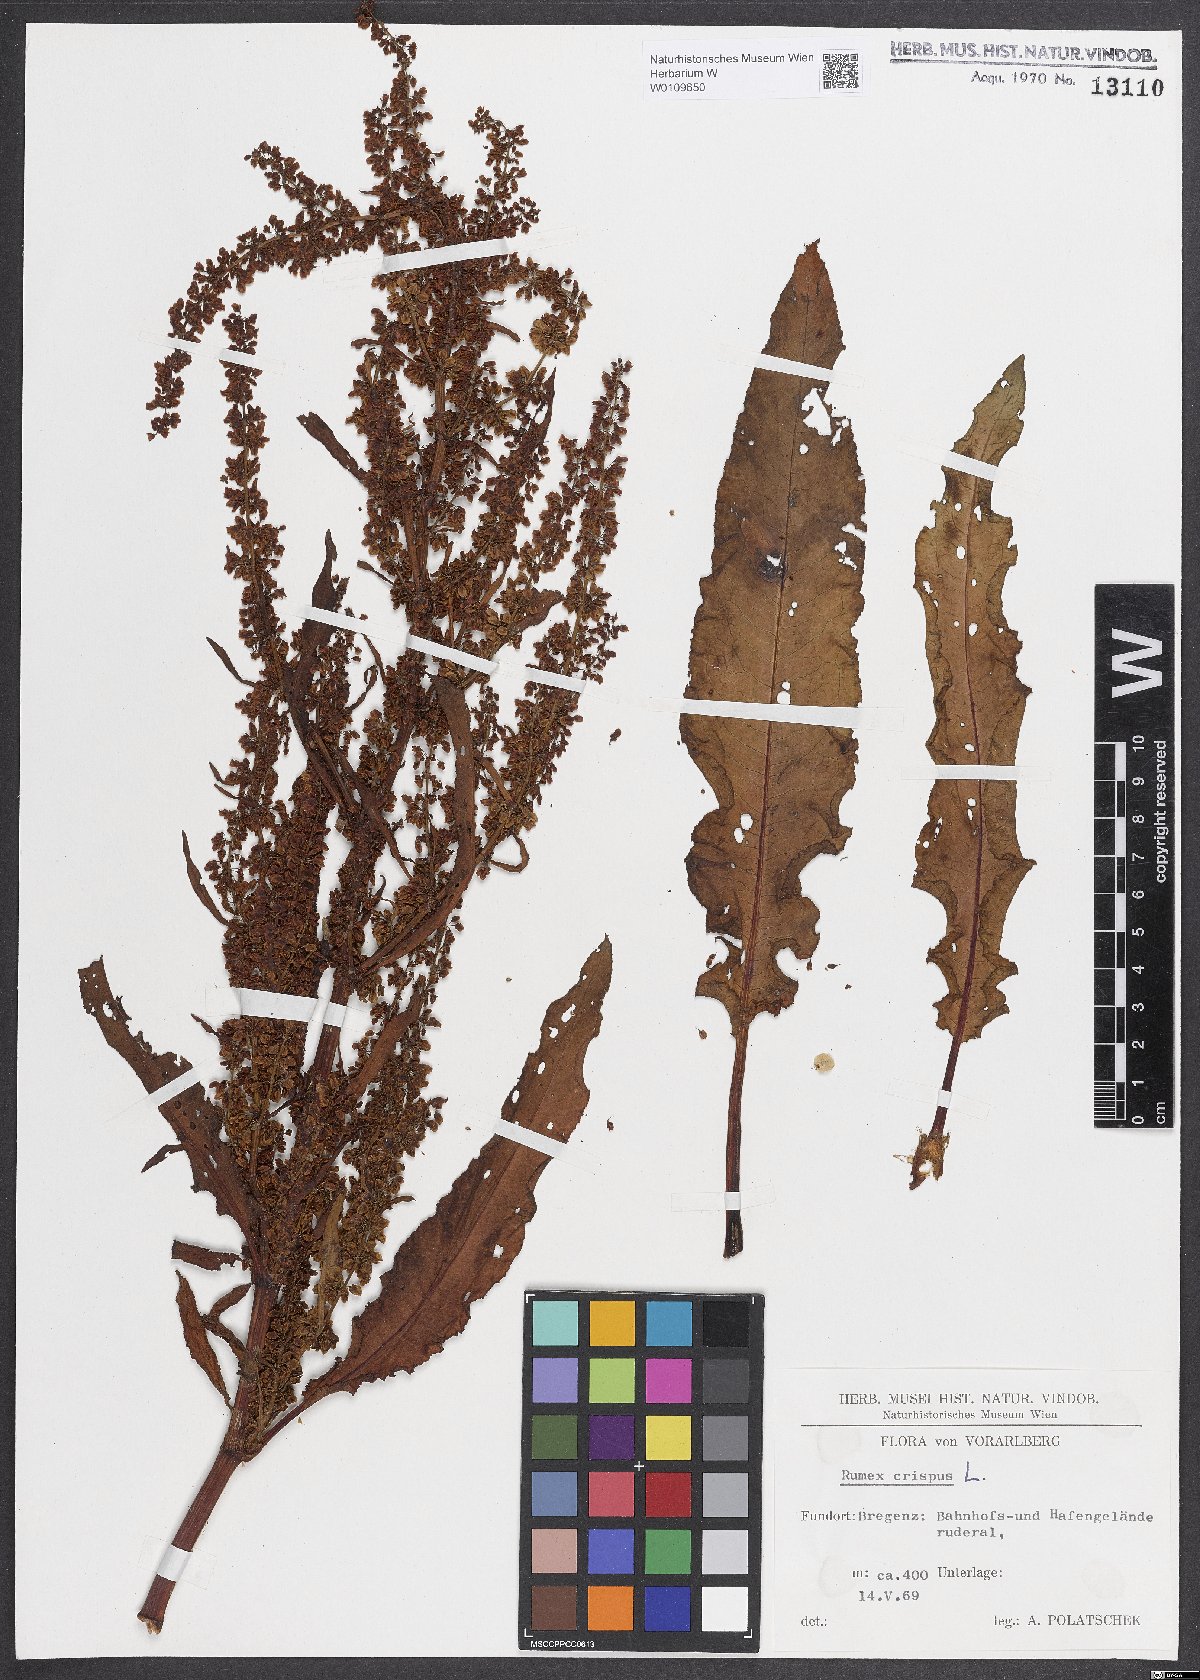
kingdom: Plantae
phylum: Tracheophyta
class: Magnoliopsida
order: Caryophyllales
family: Polygonaceae
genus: Rumex
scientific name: Rumex crispus
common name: Curled dock
